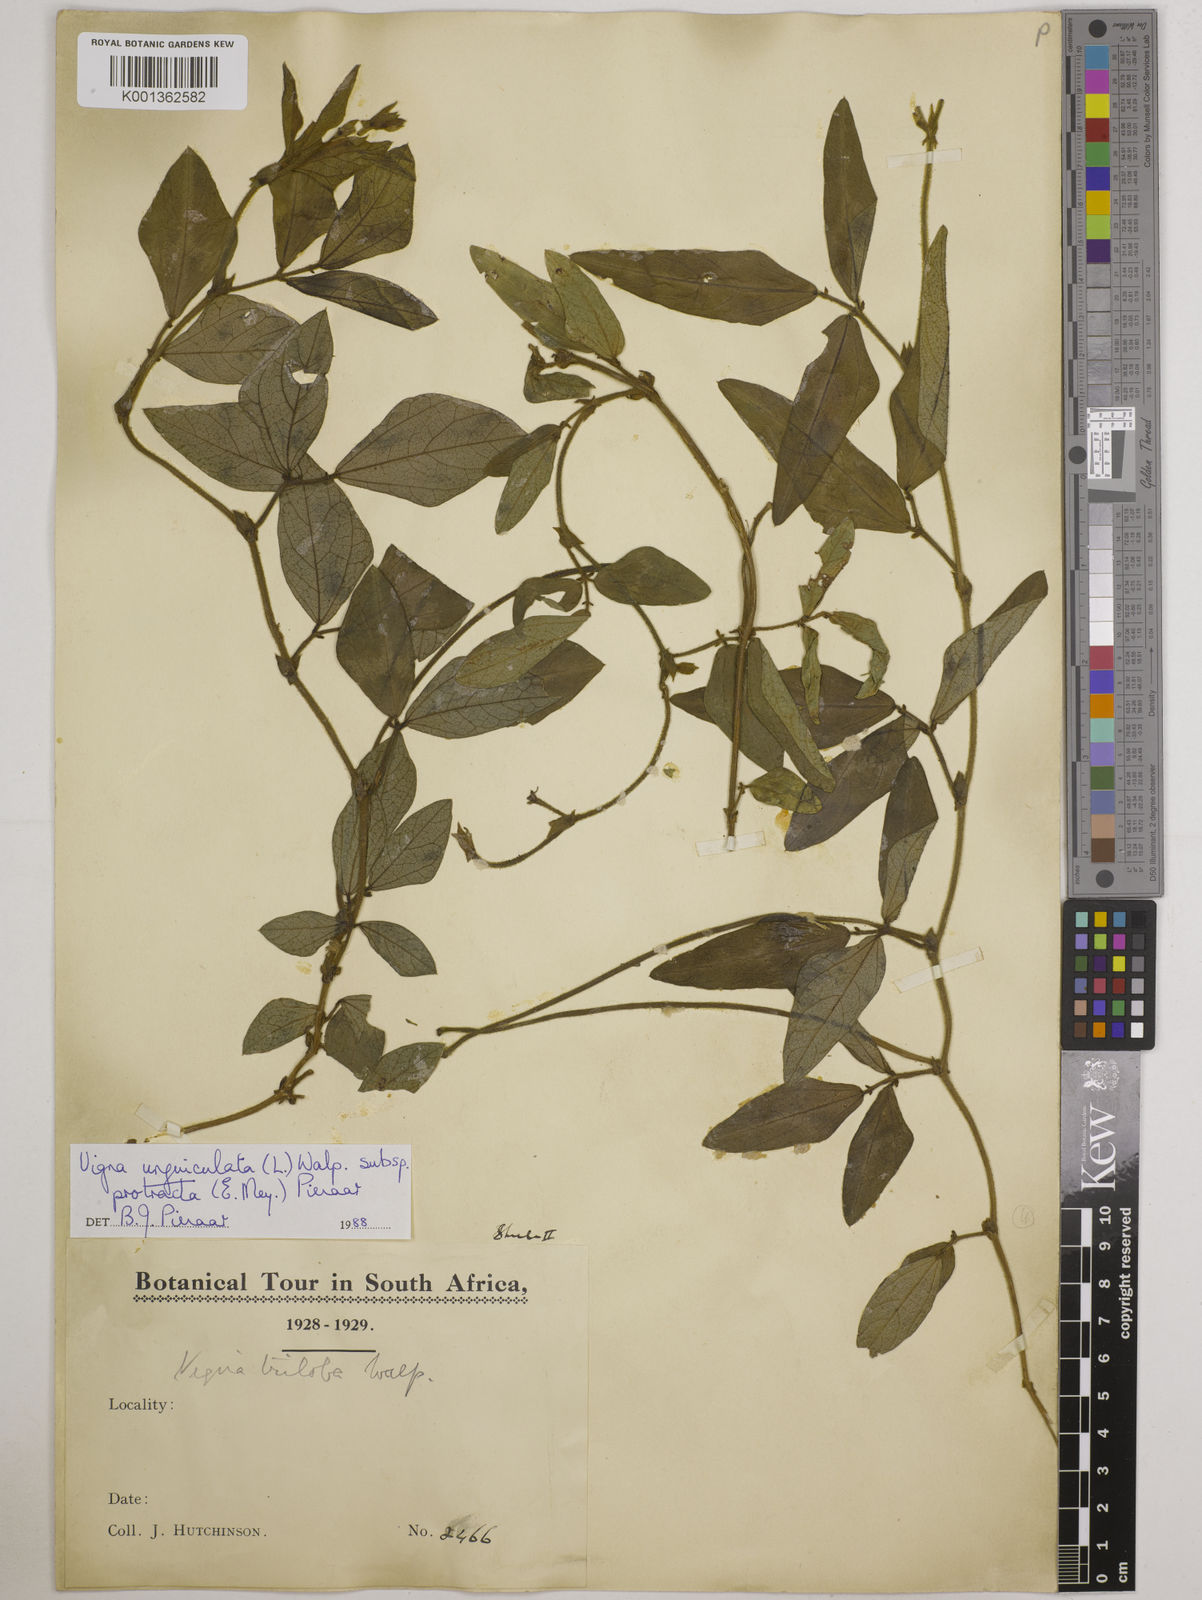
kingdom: Plantae
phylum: Tracheophyta
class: Magnoliopsida
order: Fabales
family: Fabaceae
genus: Vigna
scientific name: Vigna unguiculata
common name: Cowpea
